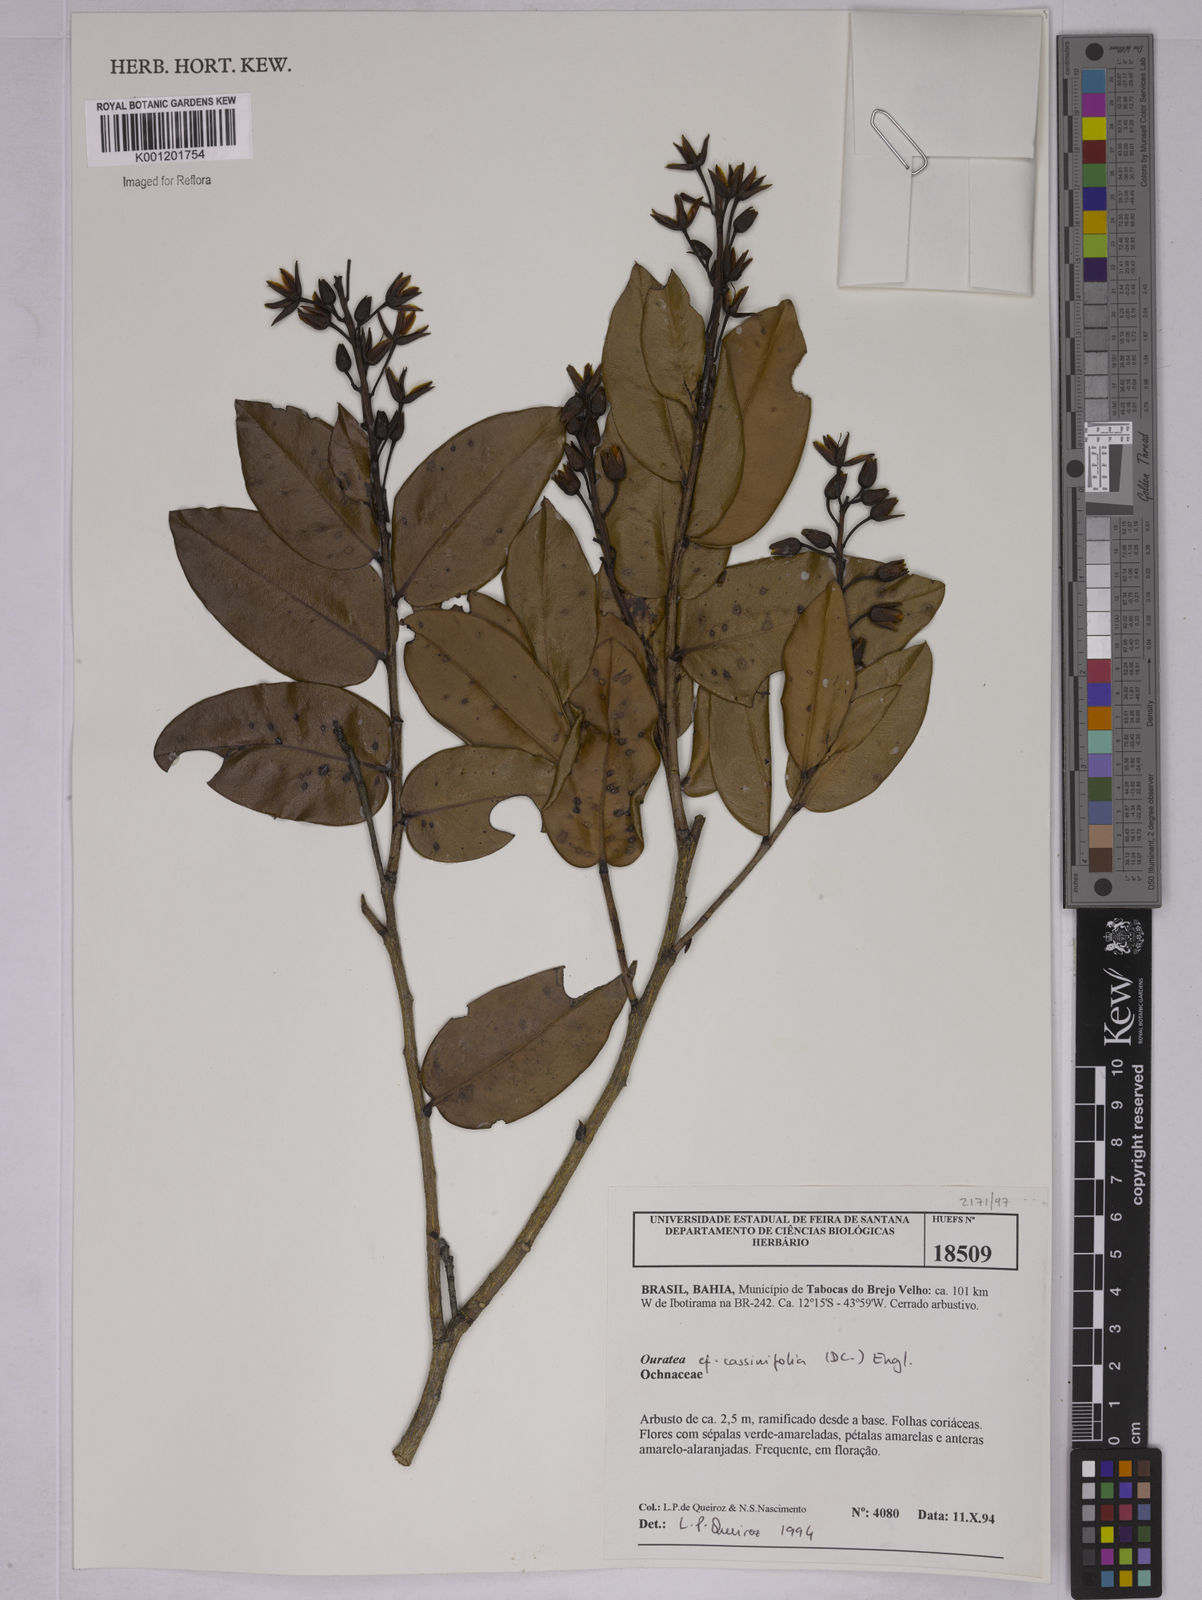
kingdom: Plantae
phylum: Tracheophyta
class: Magnoliopsida
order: Malpighiales
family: Ochnaceae
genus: Ouratea
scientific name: Ouratea
